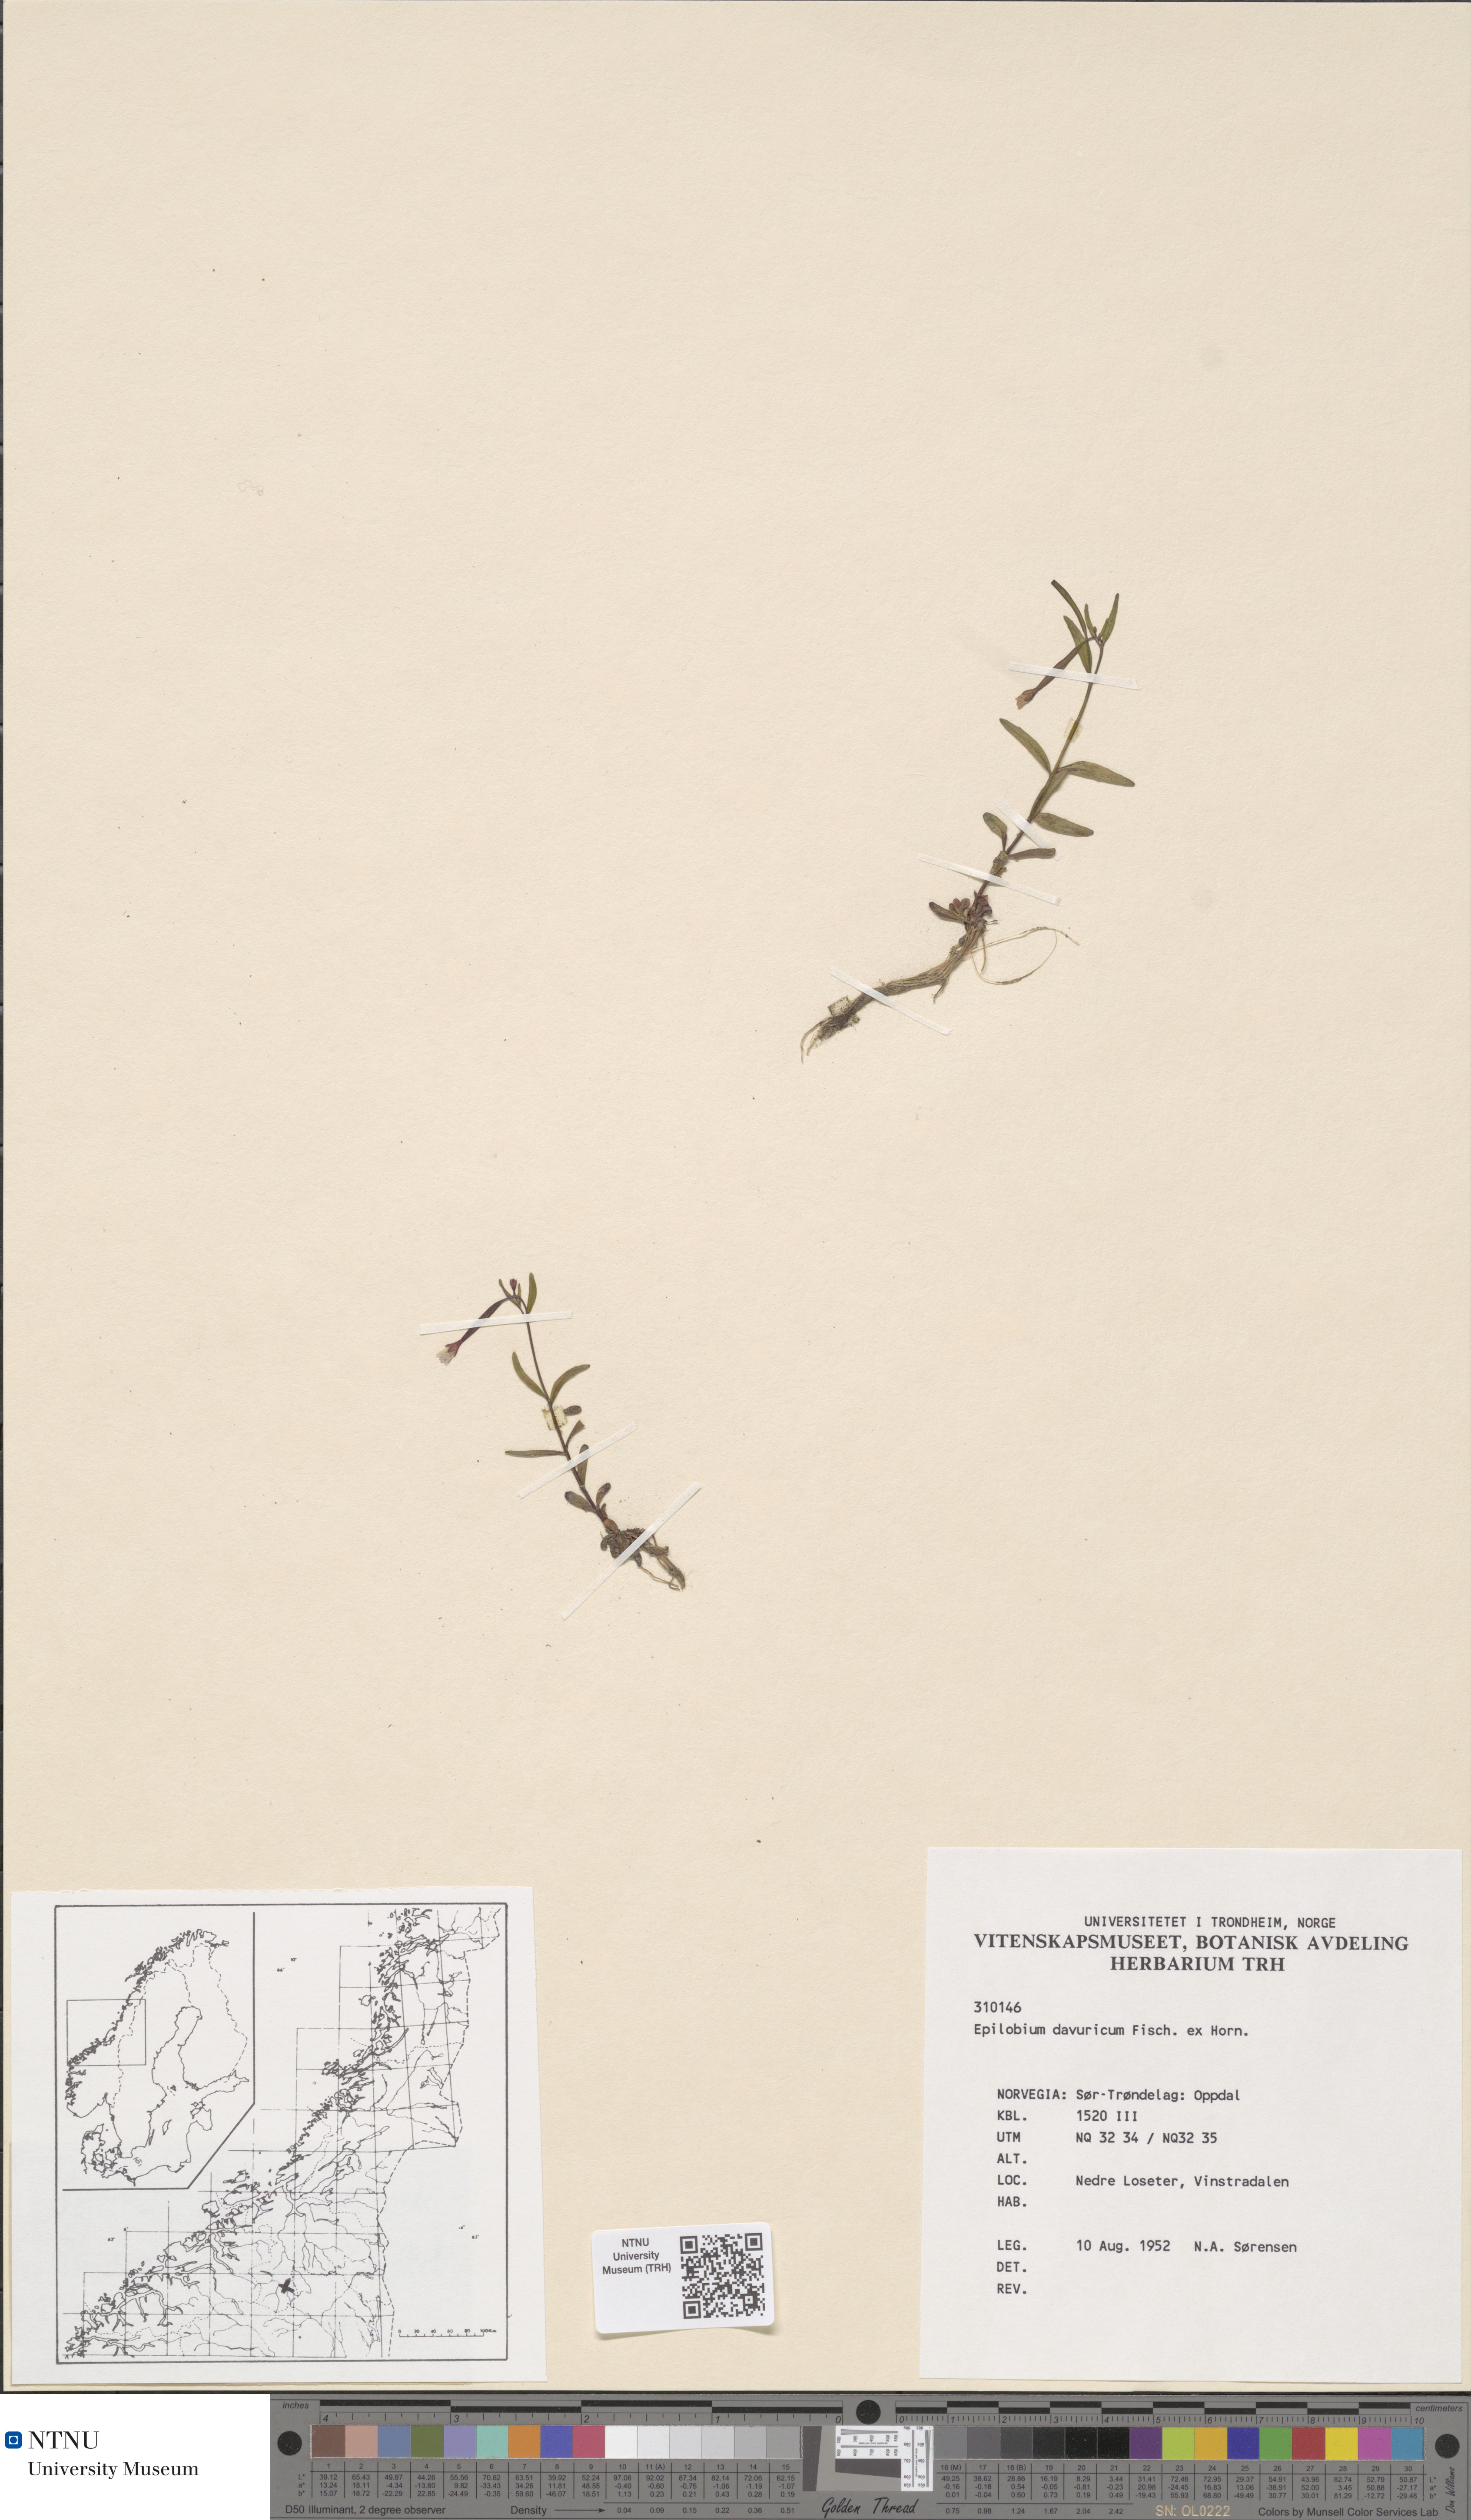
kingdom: Plantae
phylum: Tracheophyta
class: Magnoliopsida
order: Myrtales
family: Onagraceae
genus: Epilobium
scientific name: Epilobium davuricum
